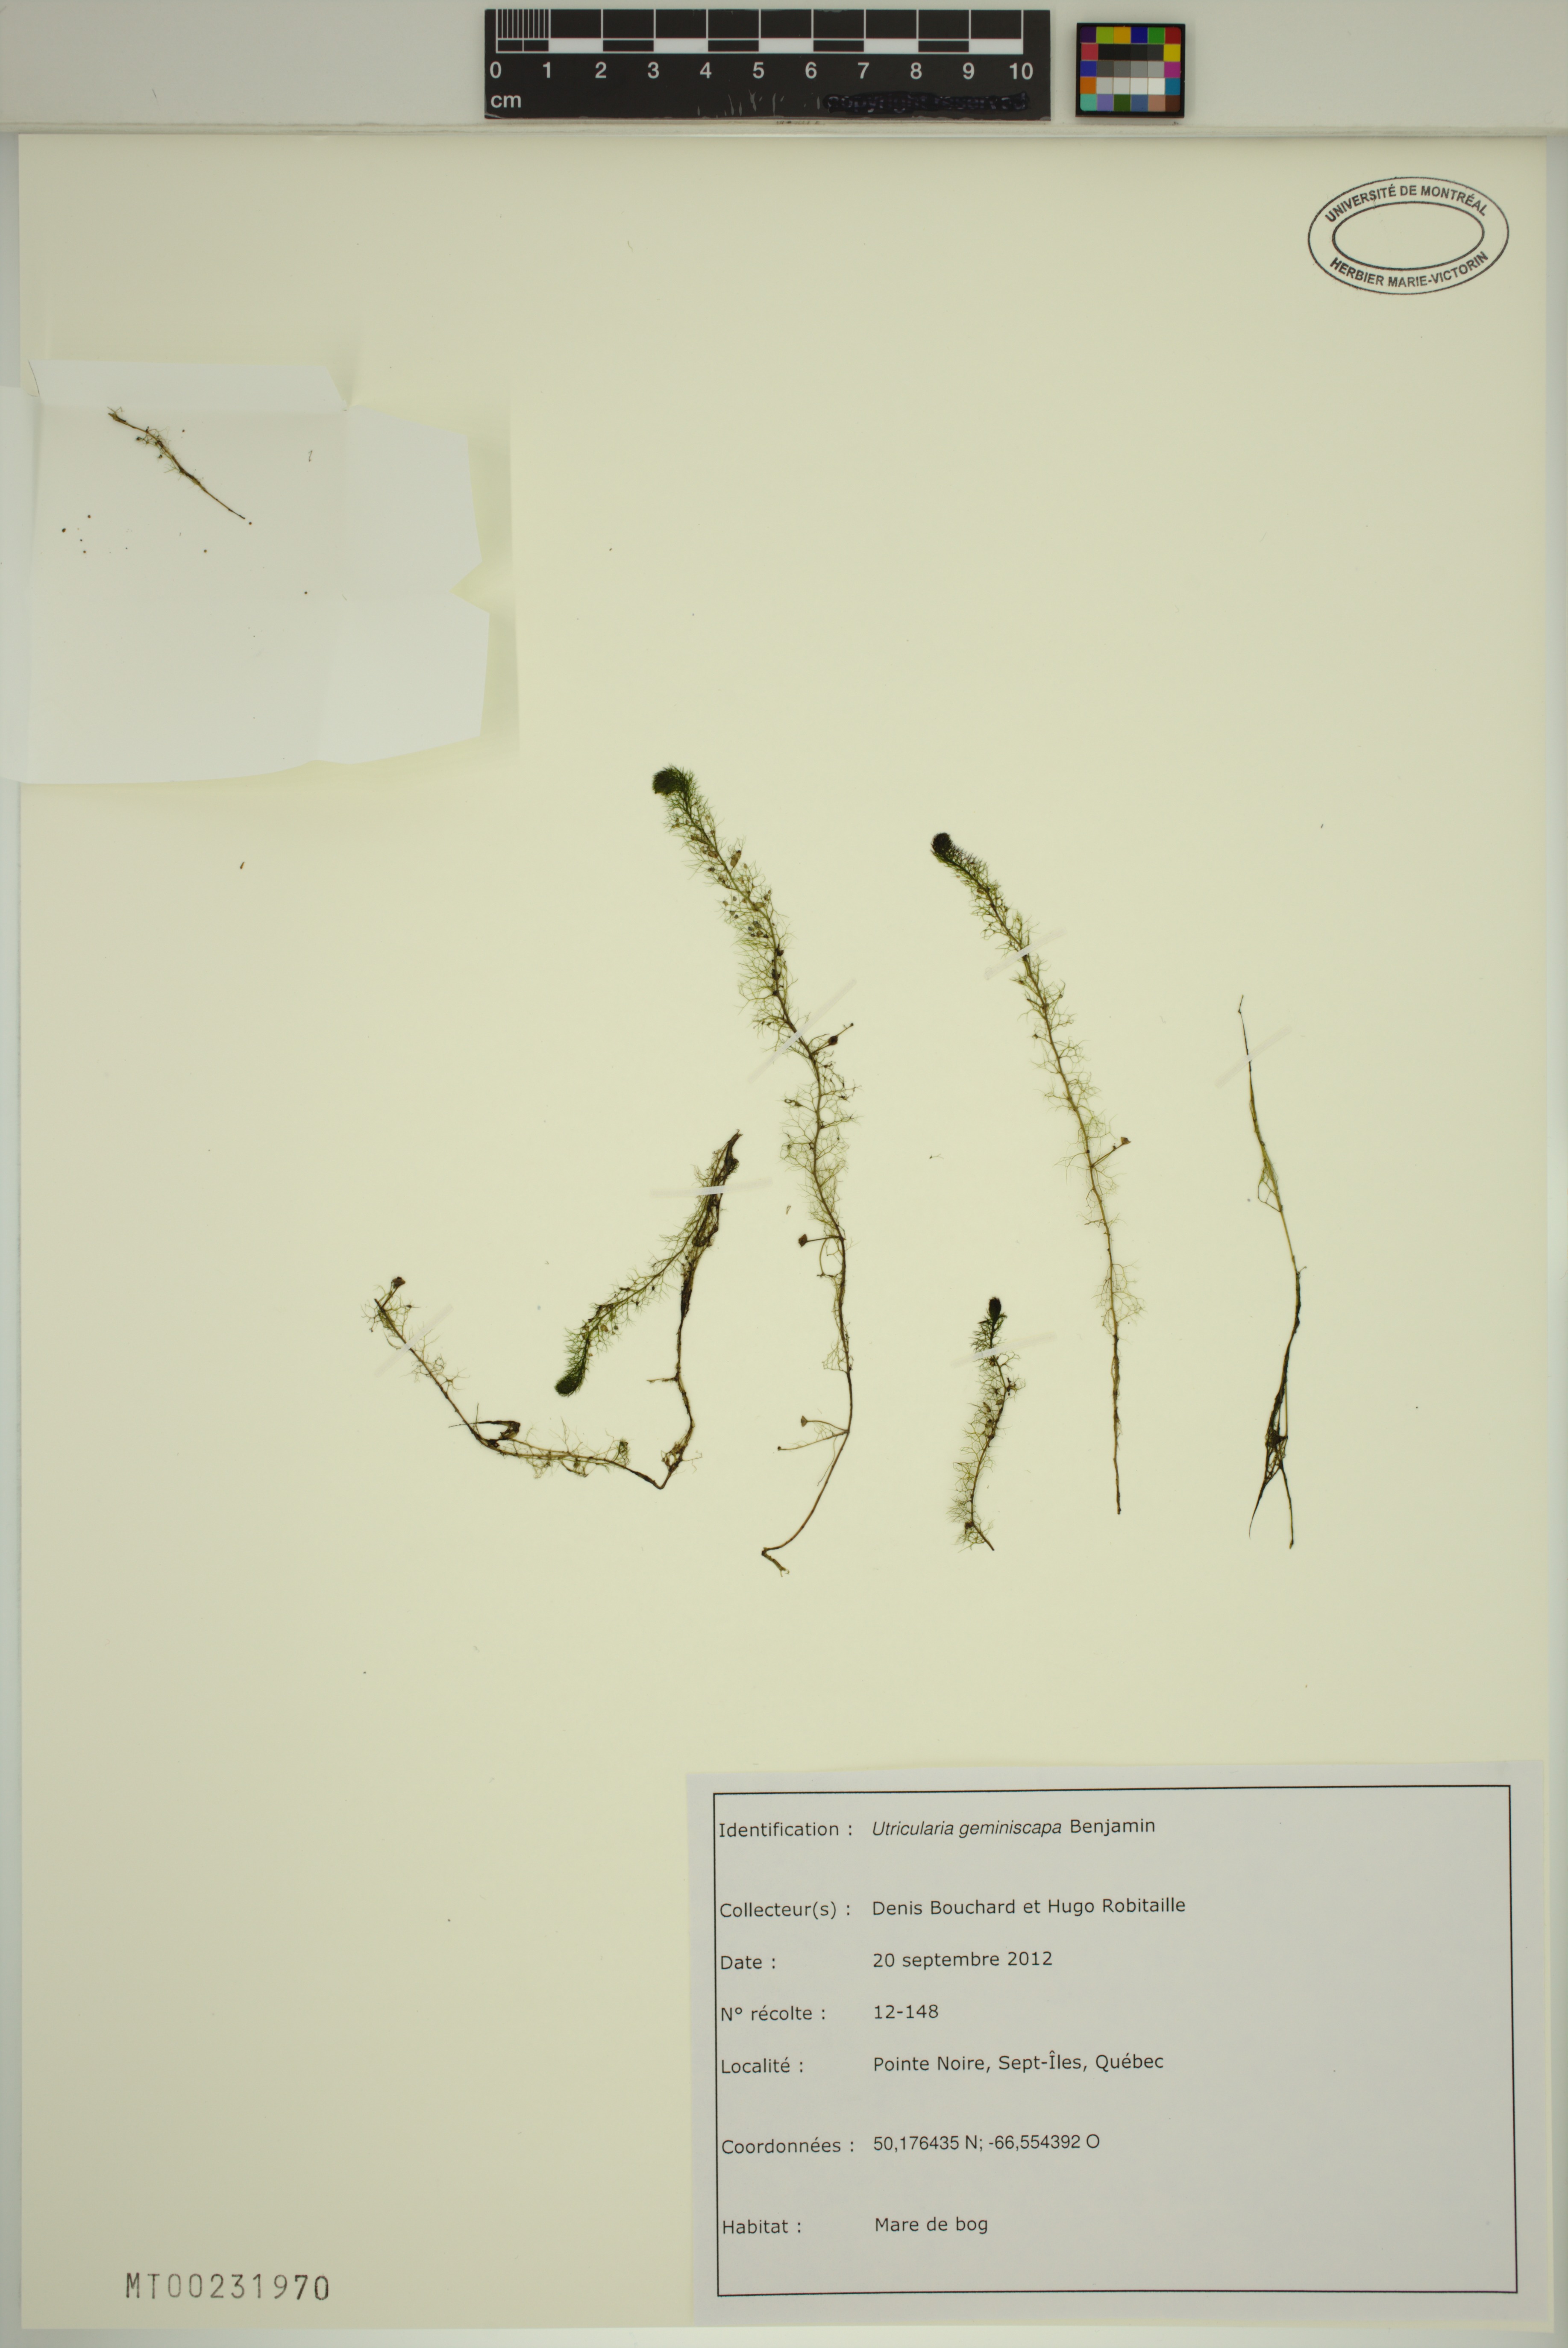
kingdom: Plantae
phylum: Tracheophyta
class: Magnoliopsida
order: Lamiales
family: Lentibulariaceae
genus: Utricularia
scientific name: Utricularia geminiscapa
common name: Hidden-fruit bladderwort
